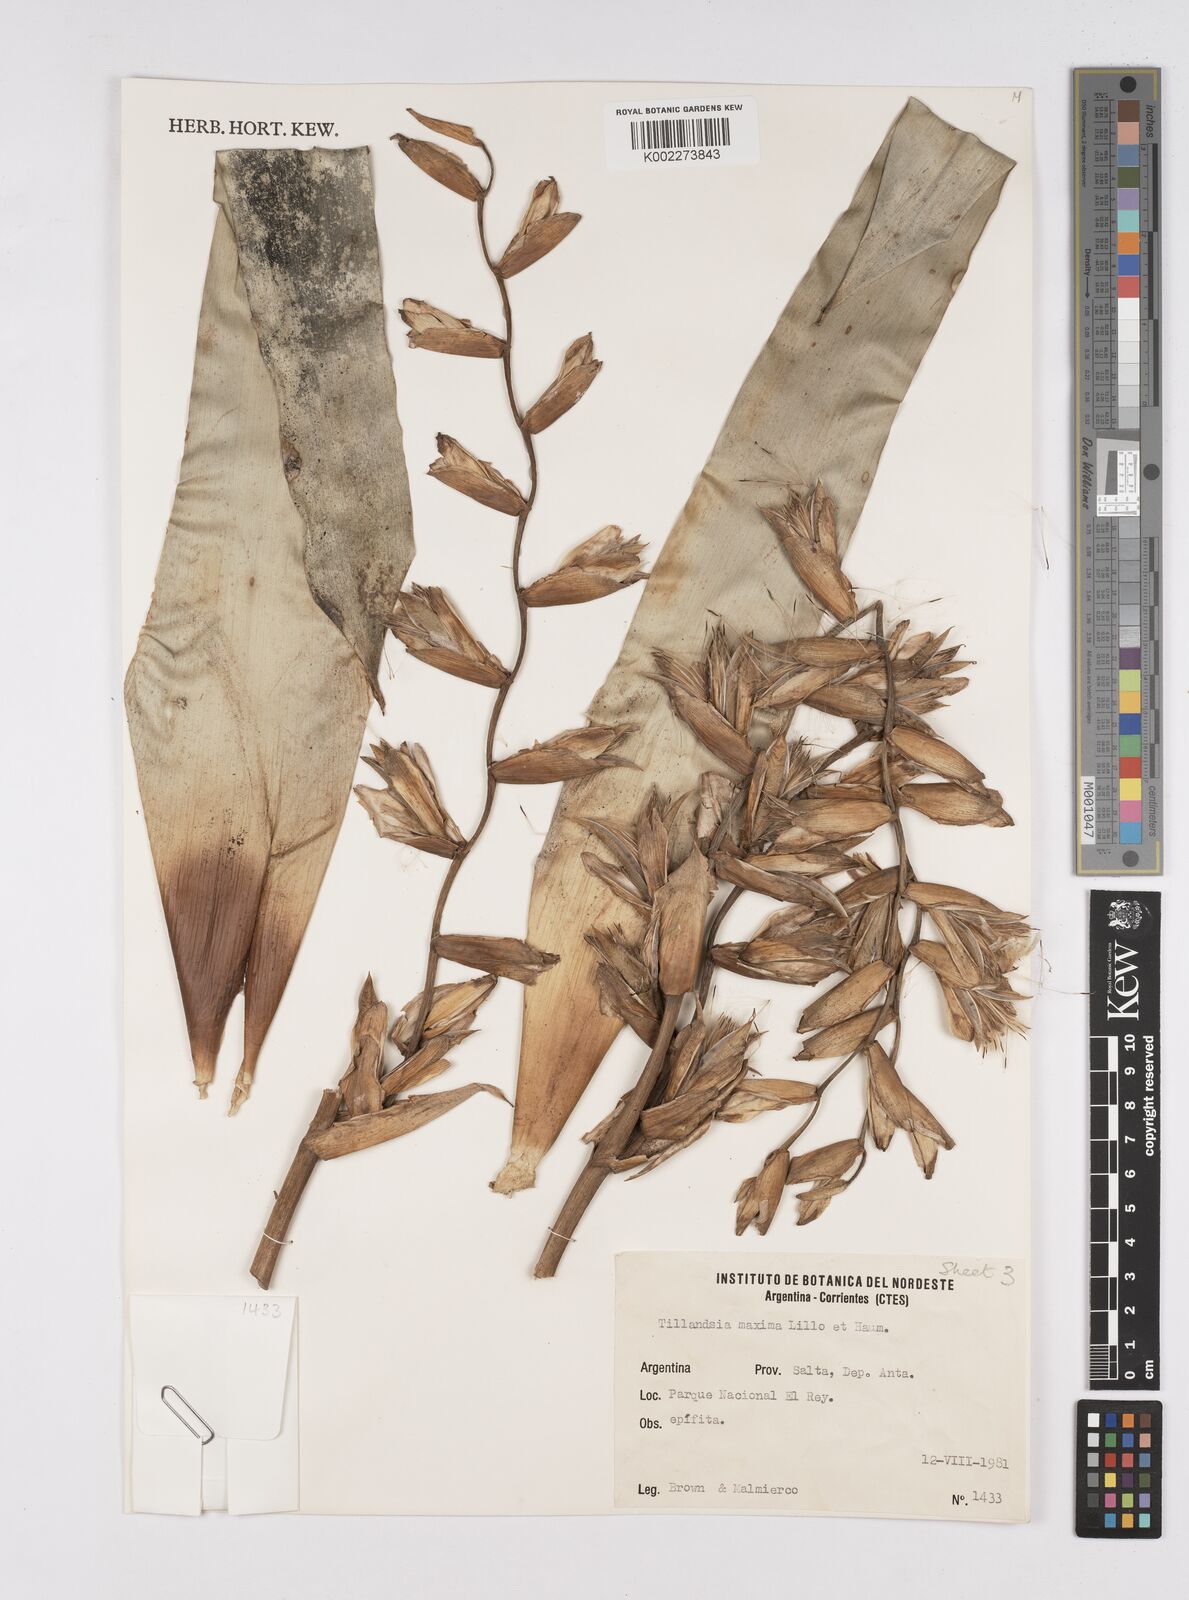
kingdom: Plantae
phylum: Tracheophyta
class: Liliopsida
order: Poales
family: Bromeliaceae
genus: Tillandsia
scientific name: Tillandsia australis
